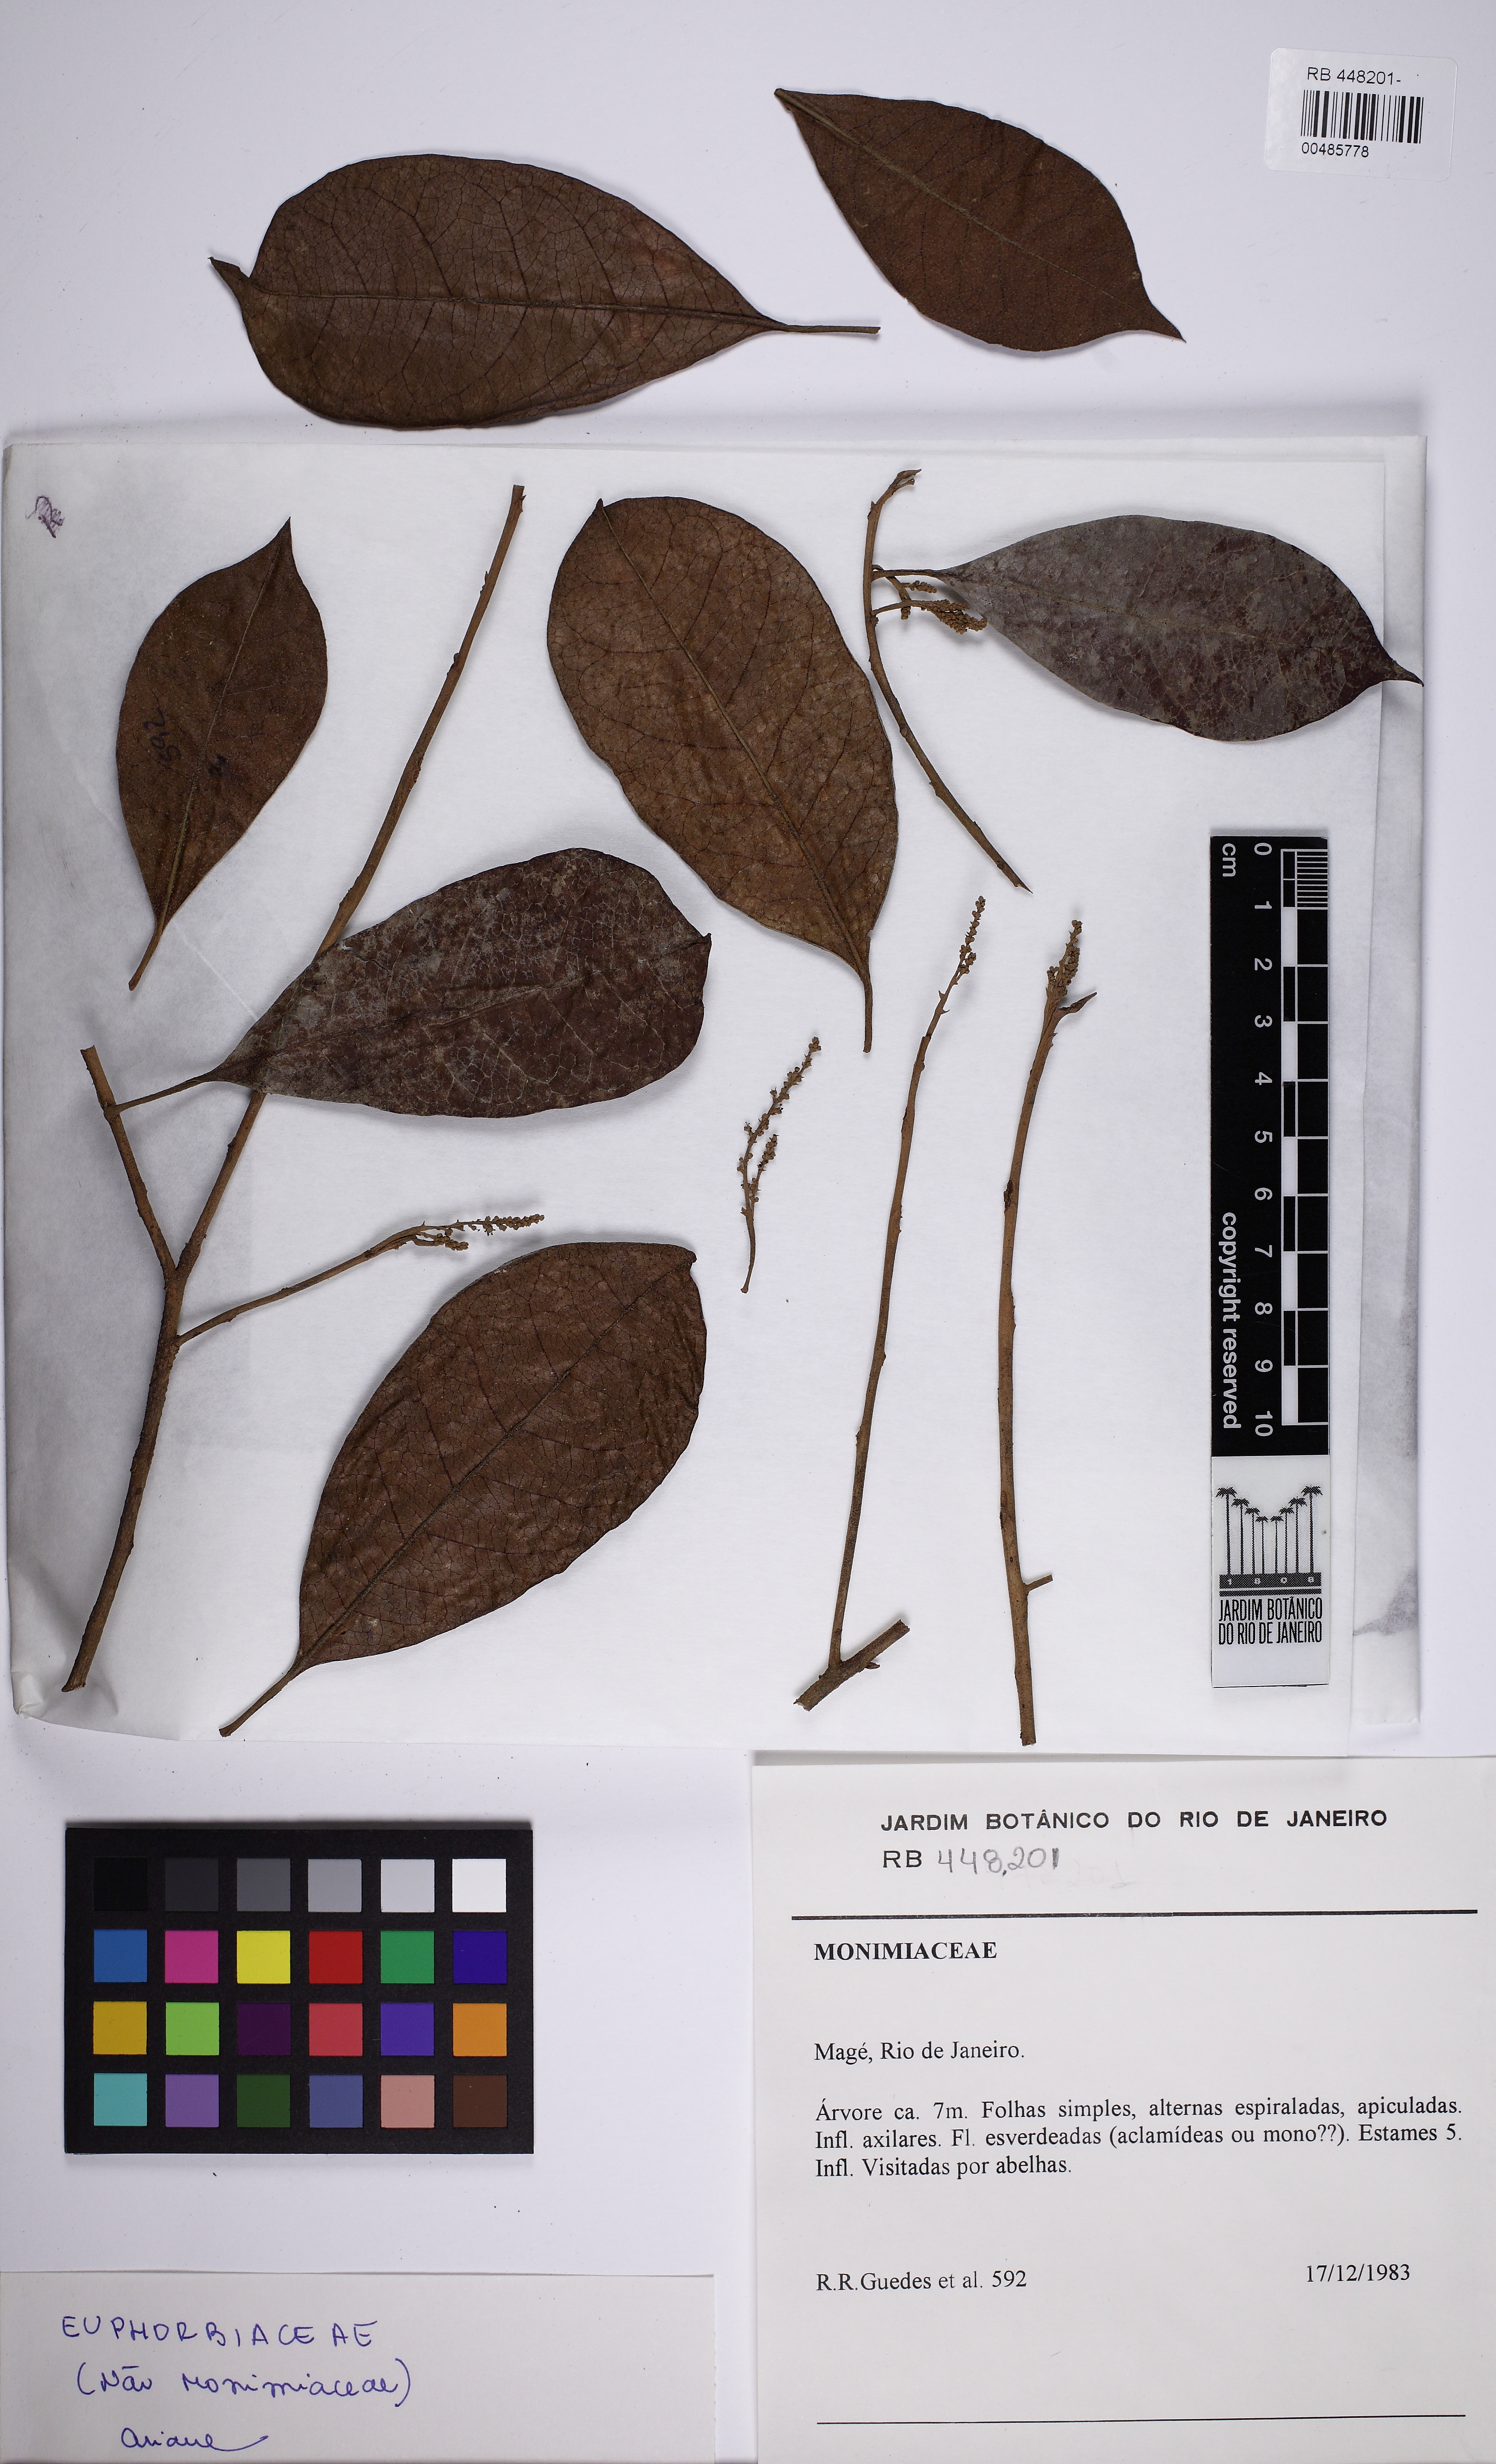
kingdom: Plantae
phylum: Tracheophyta
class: Magnoliopsida
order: Malpighiales
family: Phyllanthaceae
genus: Hieronyma
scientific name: Hieronyma oblonga
